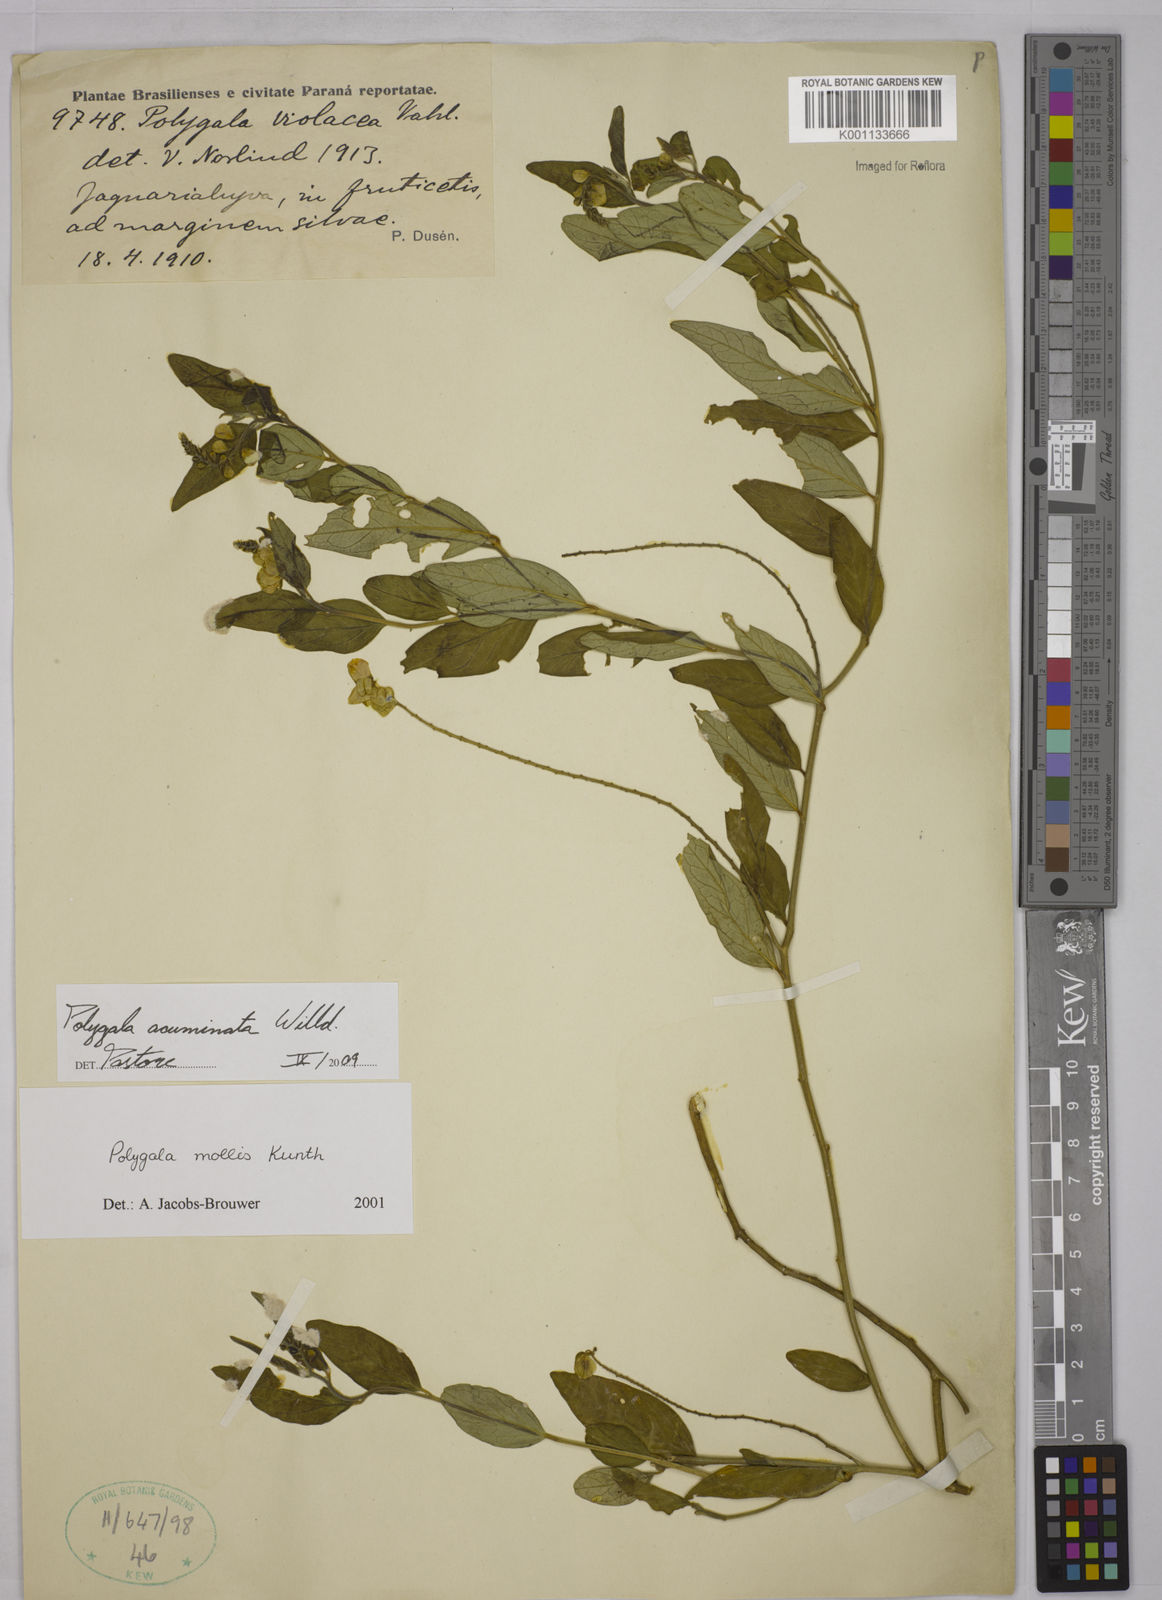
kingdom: Plantae
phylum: Tracheophyta
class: Magnoliopsida
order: Fabales
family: Polygalaceae
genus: Asemeia
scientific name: Asemeia acuminata
